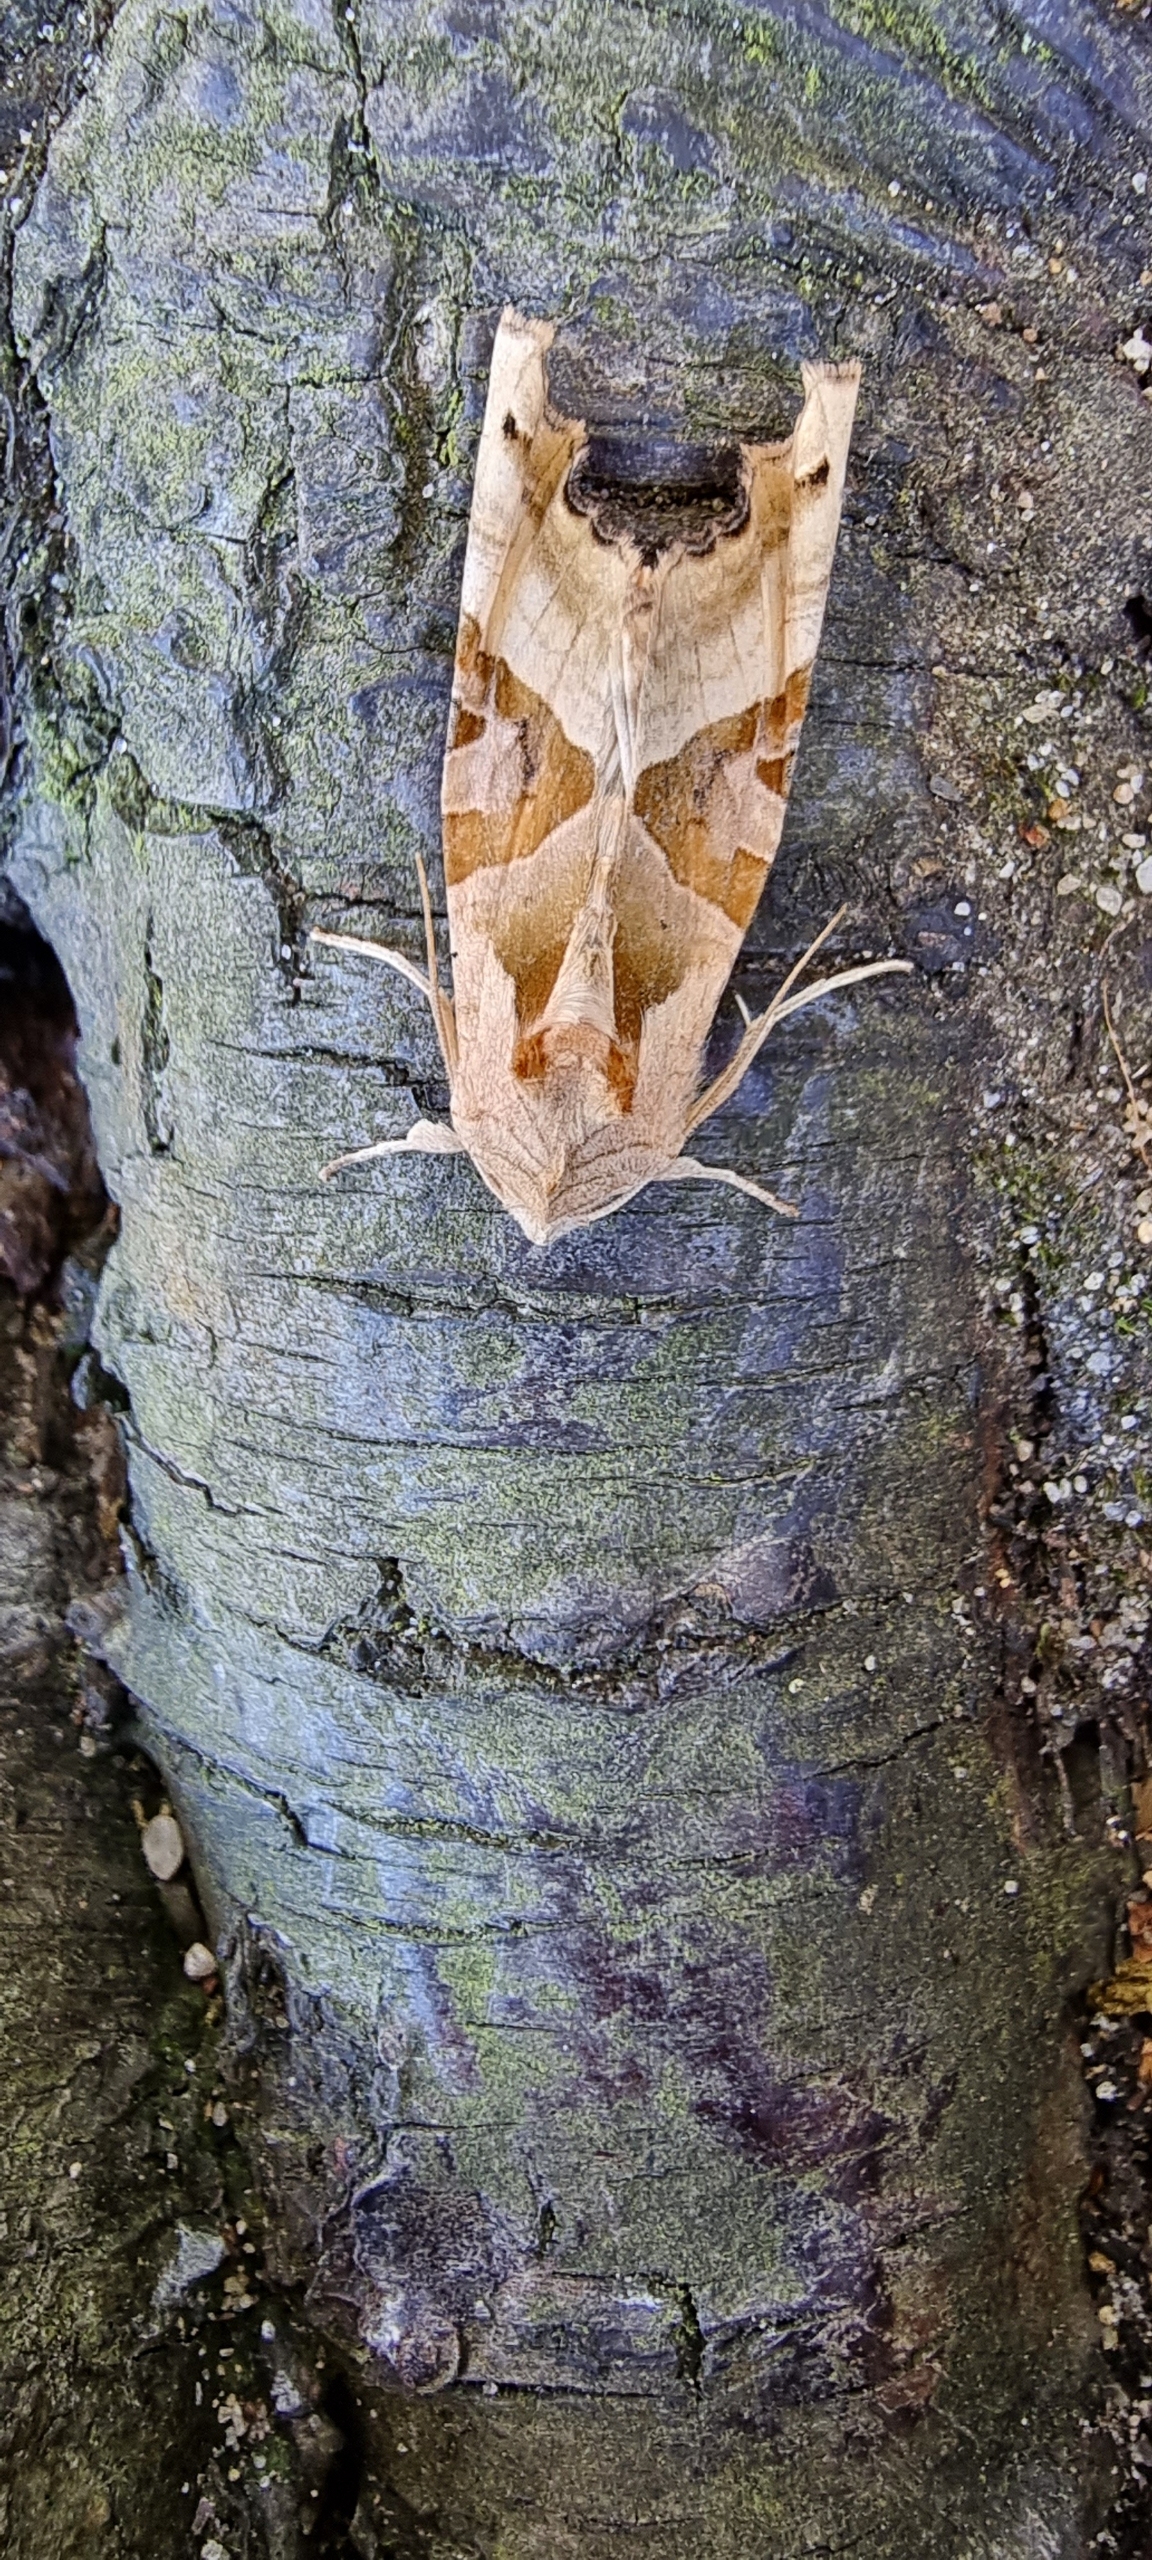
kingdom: Animalia
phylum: Arthropoda
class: Insecta
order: Lepidoptera
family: Noctuidae
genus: Phlogophora
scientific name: Phlogophora meticulosa
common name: Agatugle
